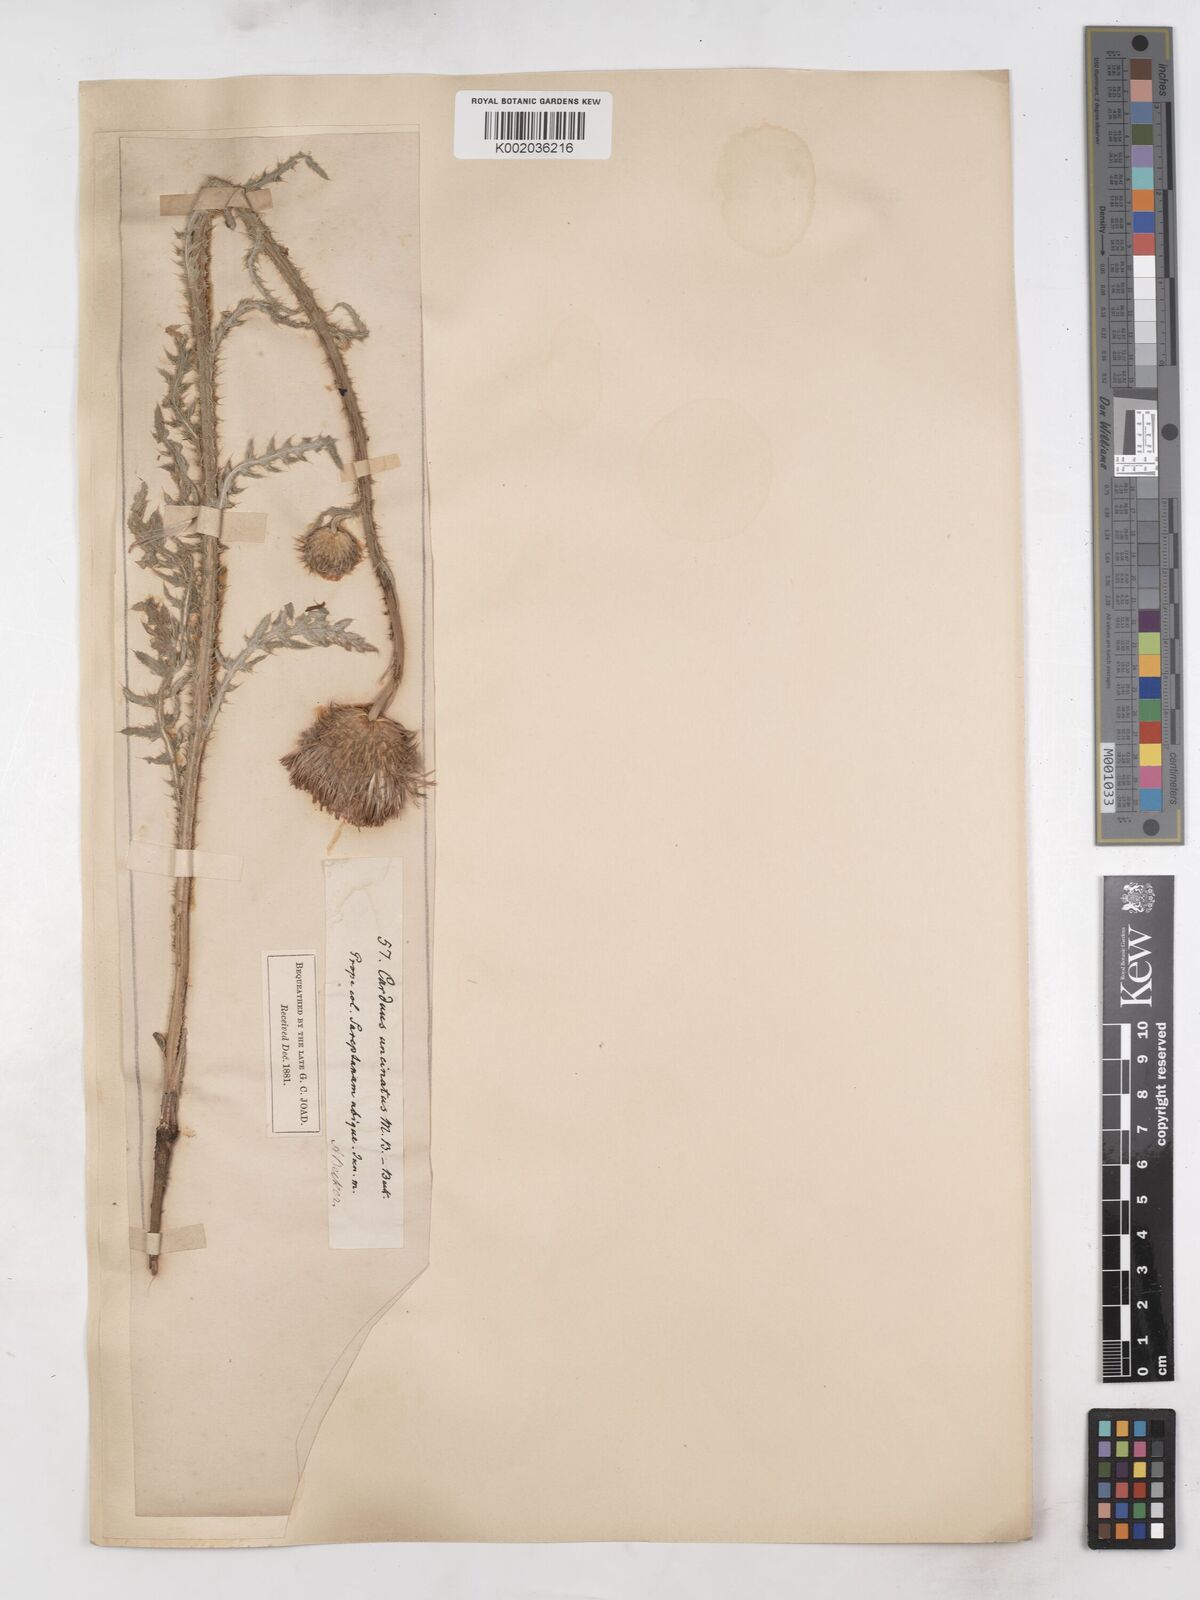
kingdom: Plantae
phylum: Tracheophyta
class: Magnoliopsida
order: Asterales
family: Asteraceae
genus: Carduus
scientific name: Carduus uncinatus
